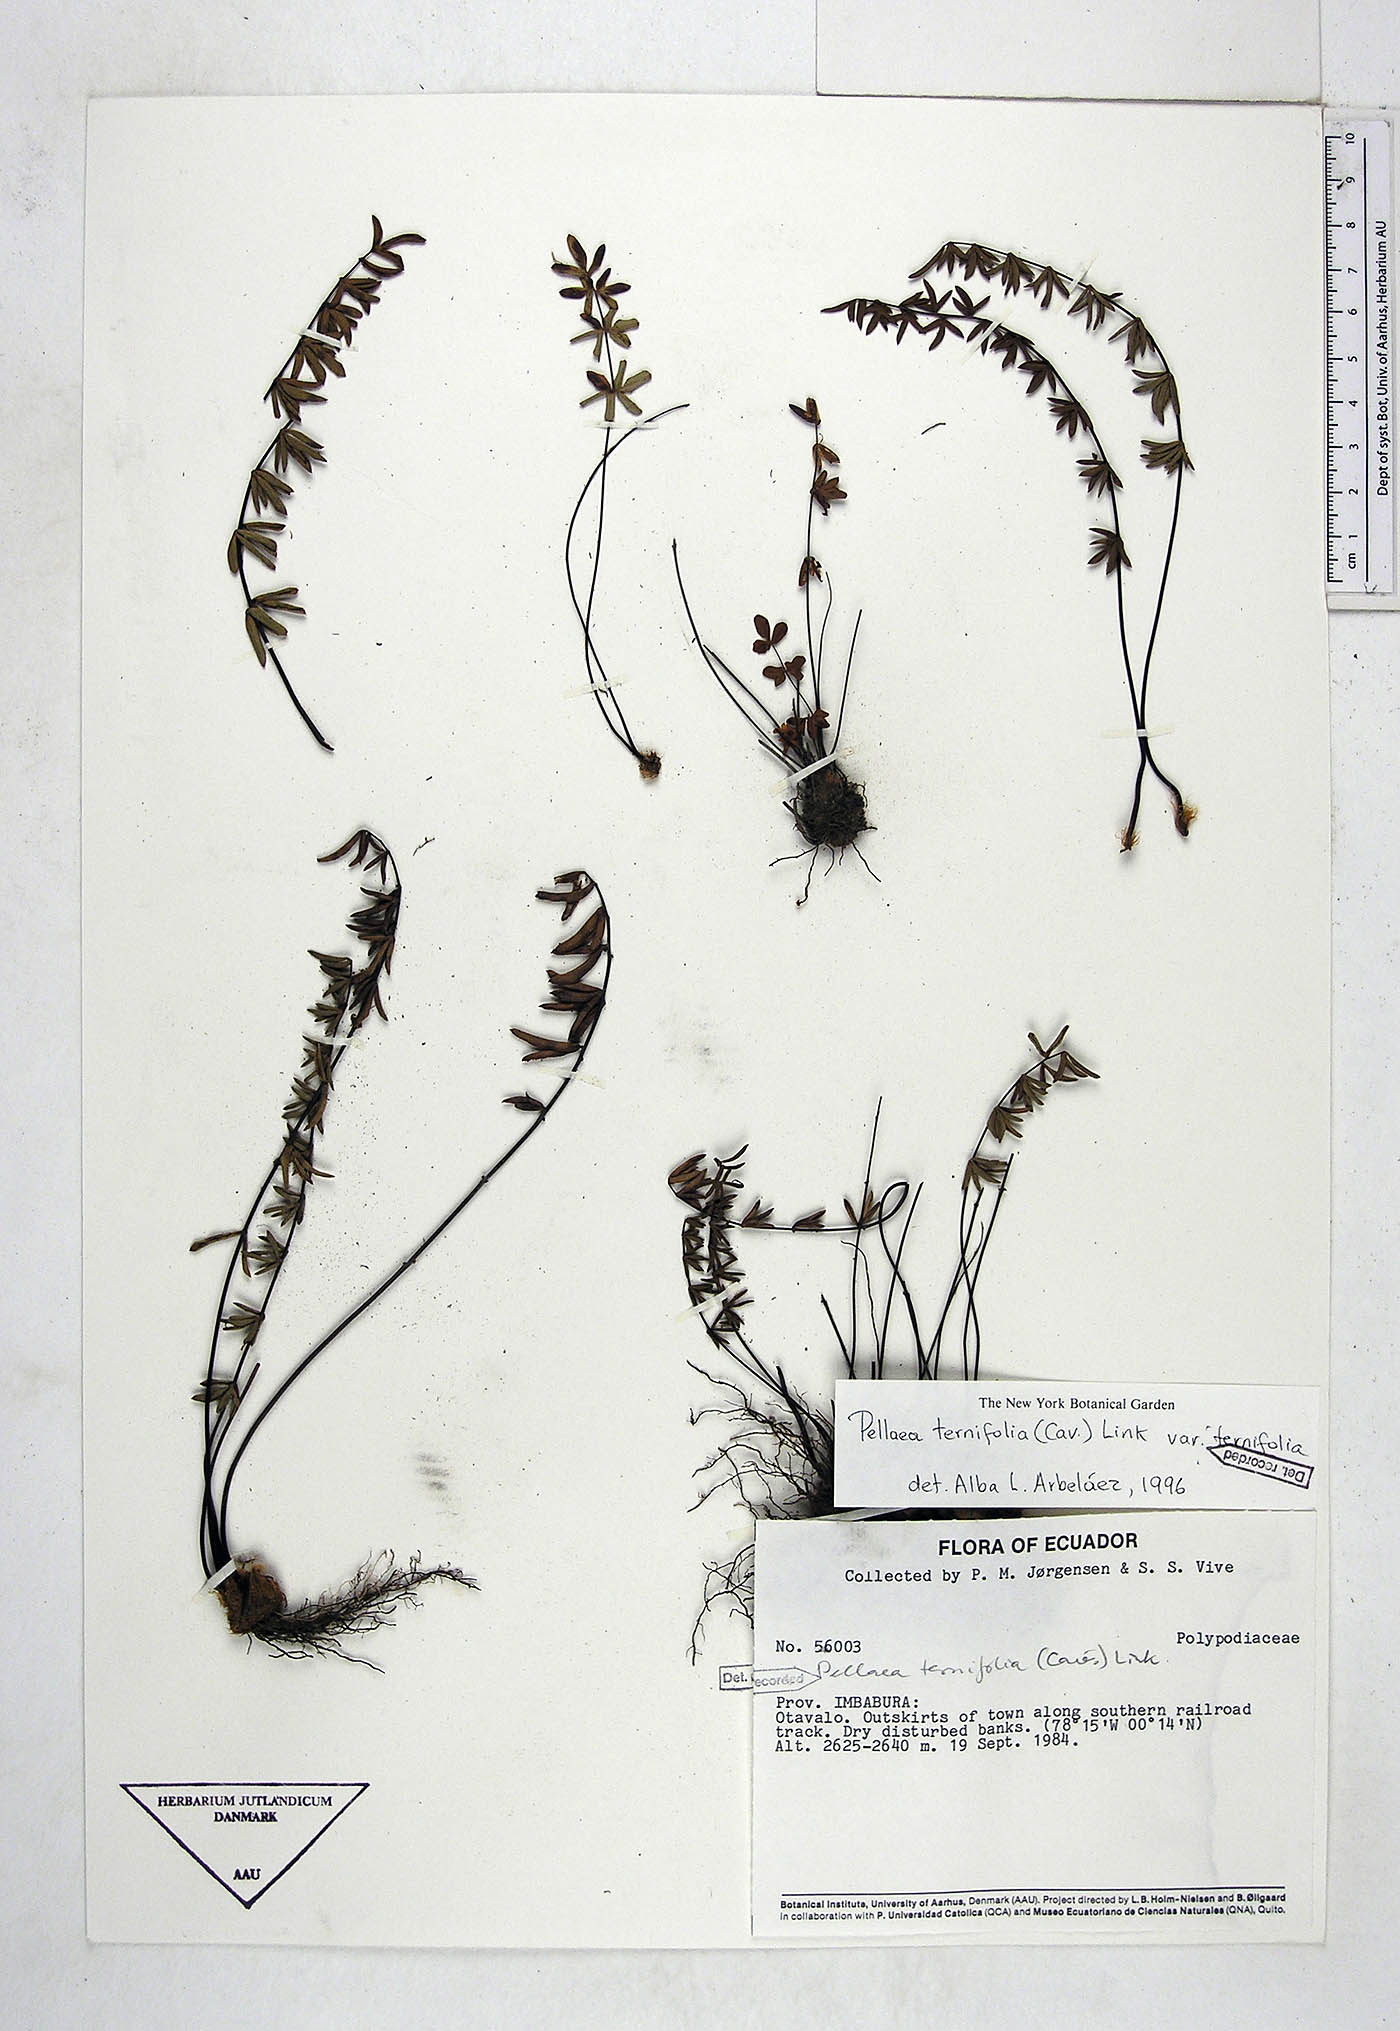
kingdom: Plantae
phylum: Tracheophyta
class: Polypodiopsida
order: Polypodiales
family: Pteridaceae
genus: Pellaea
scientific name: Pellaea ternifolia
